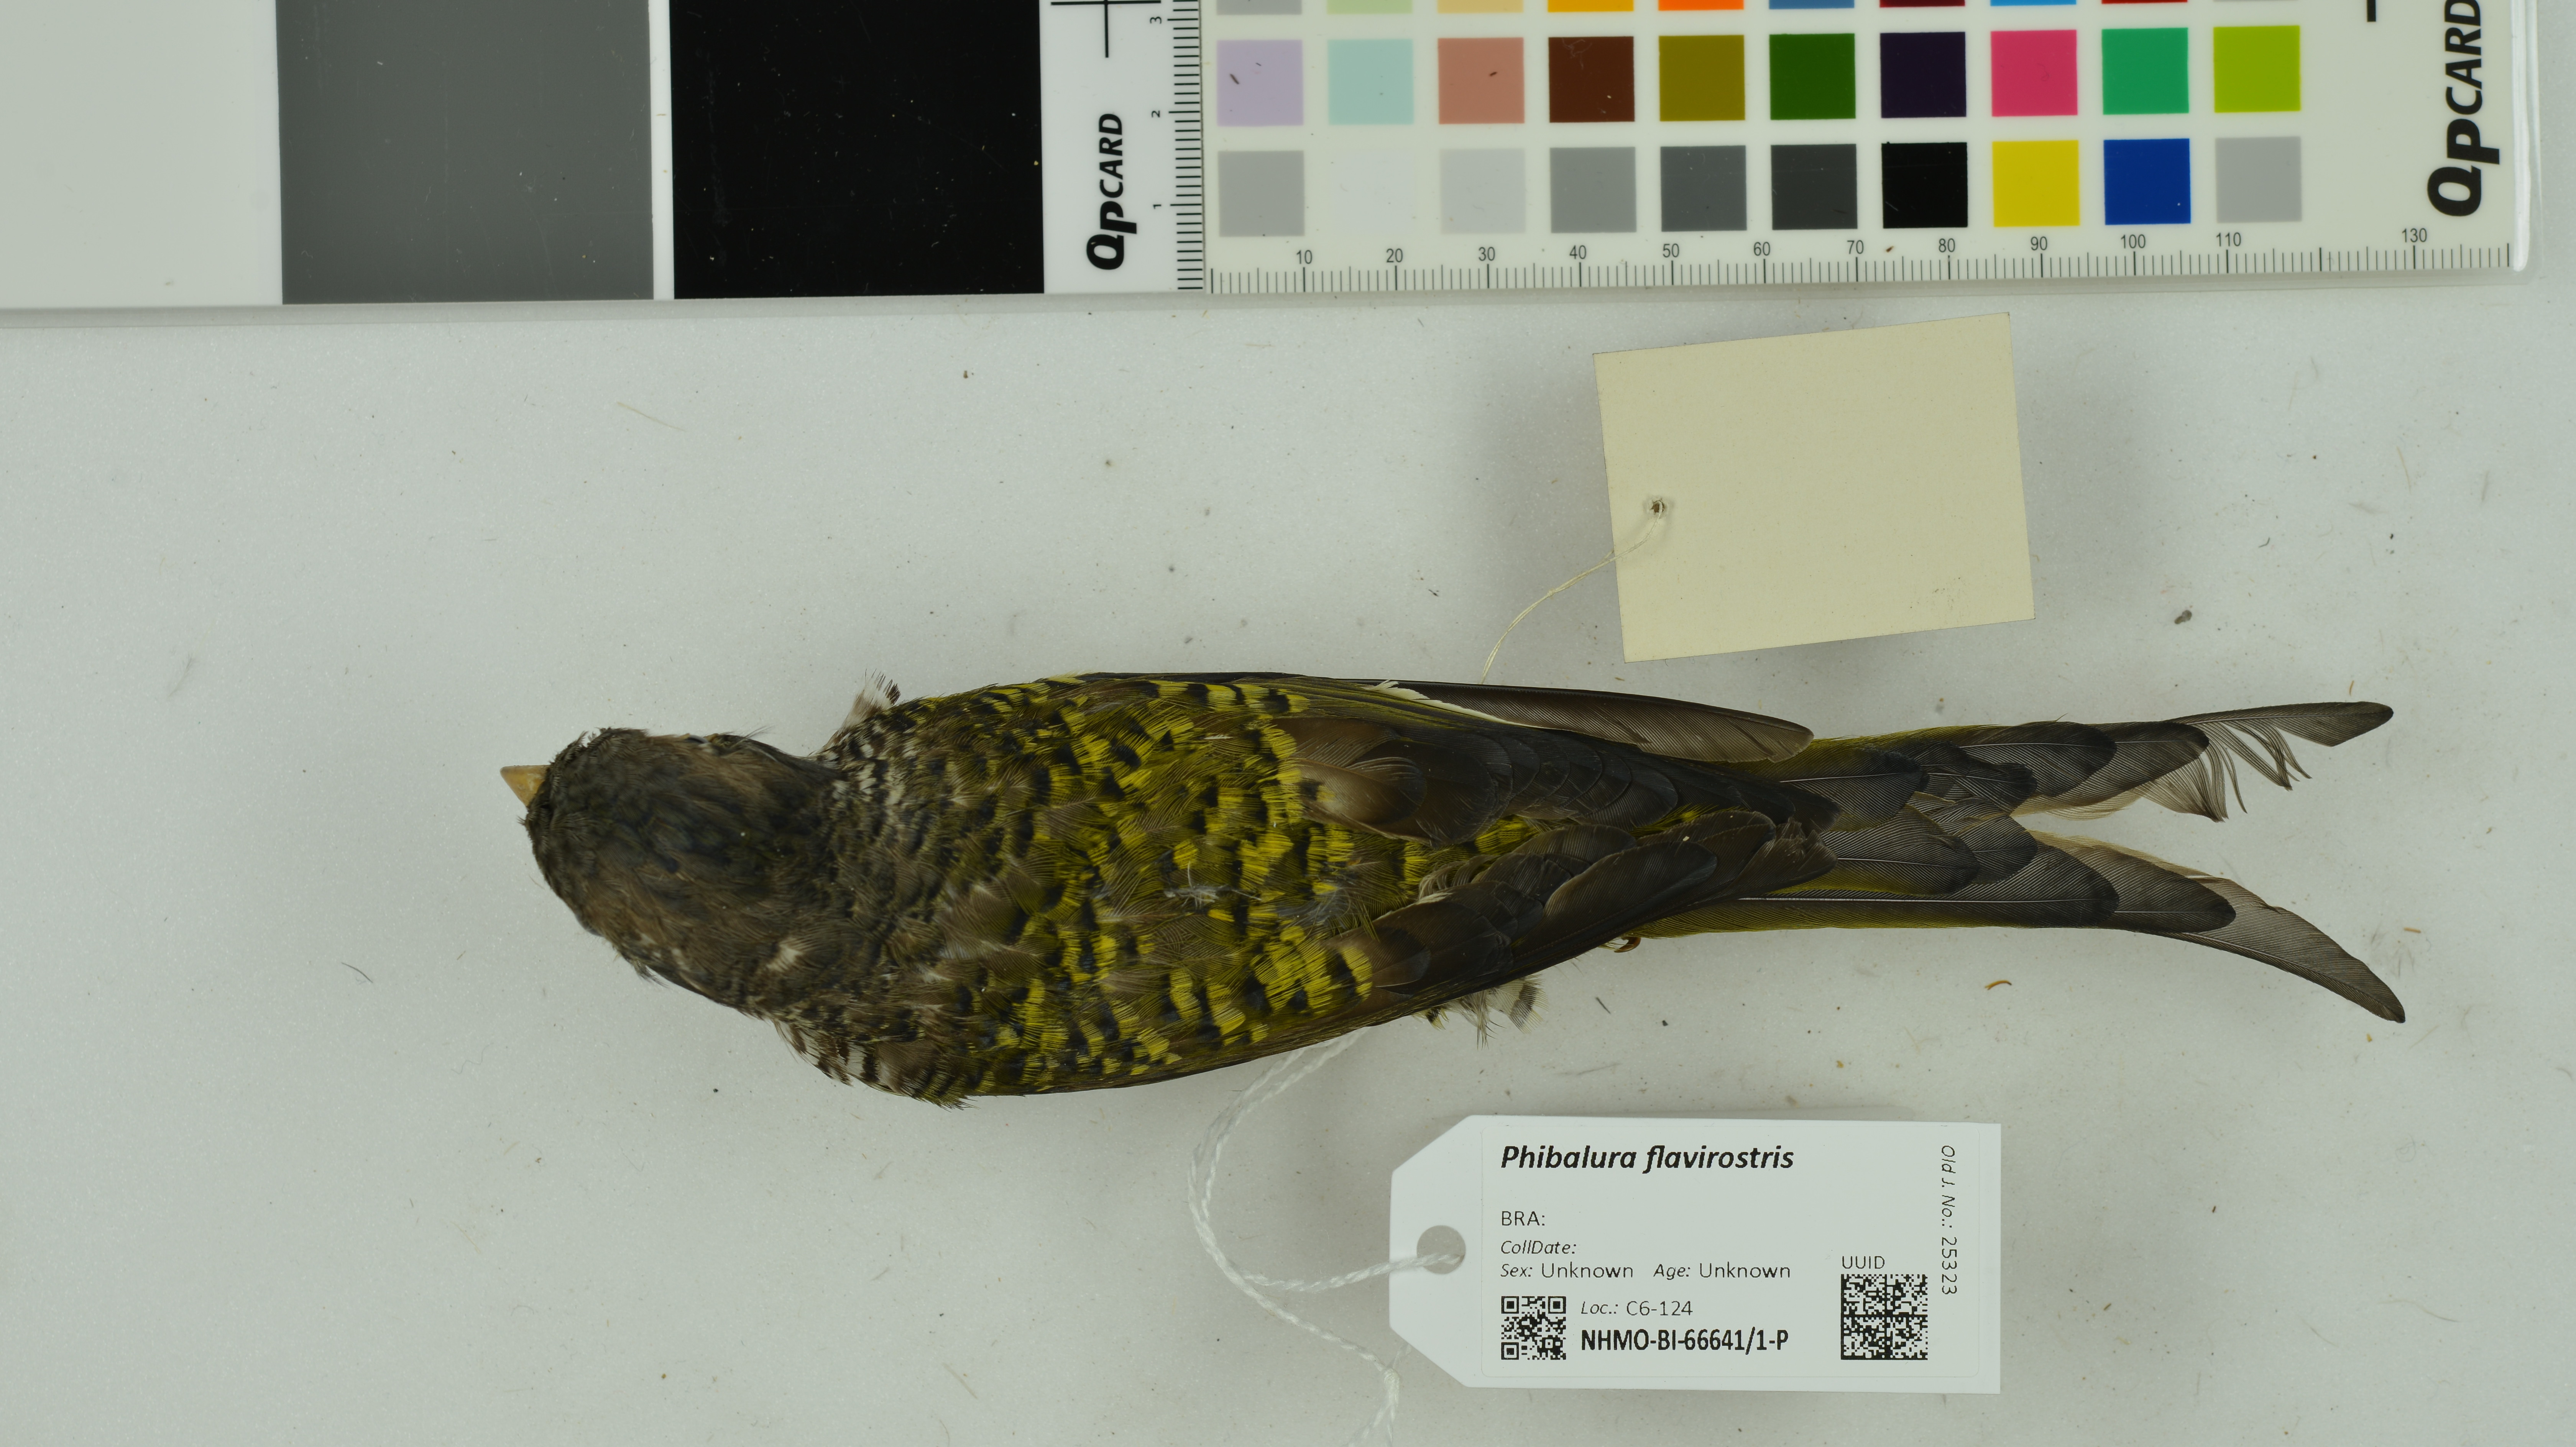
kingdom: Animalia
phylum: Chordata
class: Aves
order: Passeriformes
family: Cotingidae
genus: Phibalura
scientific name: Phibalura flavirostris
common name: Swallow-tailed cotinga
